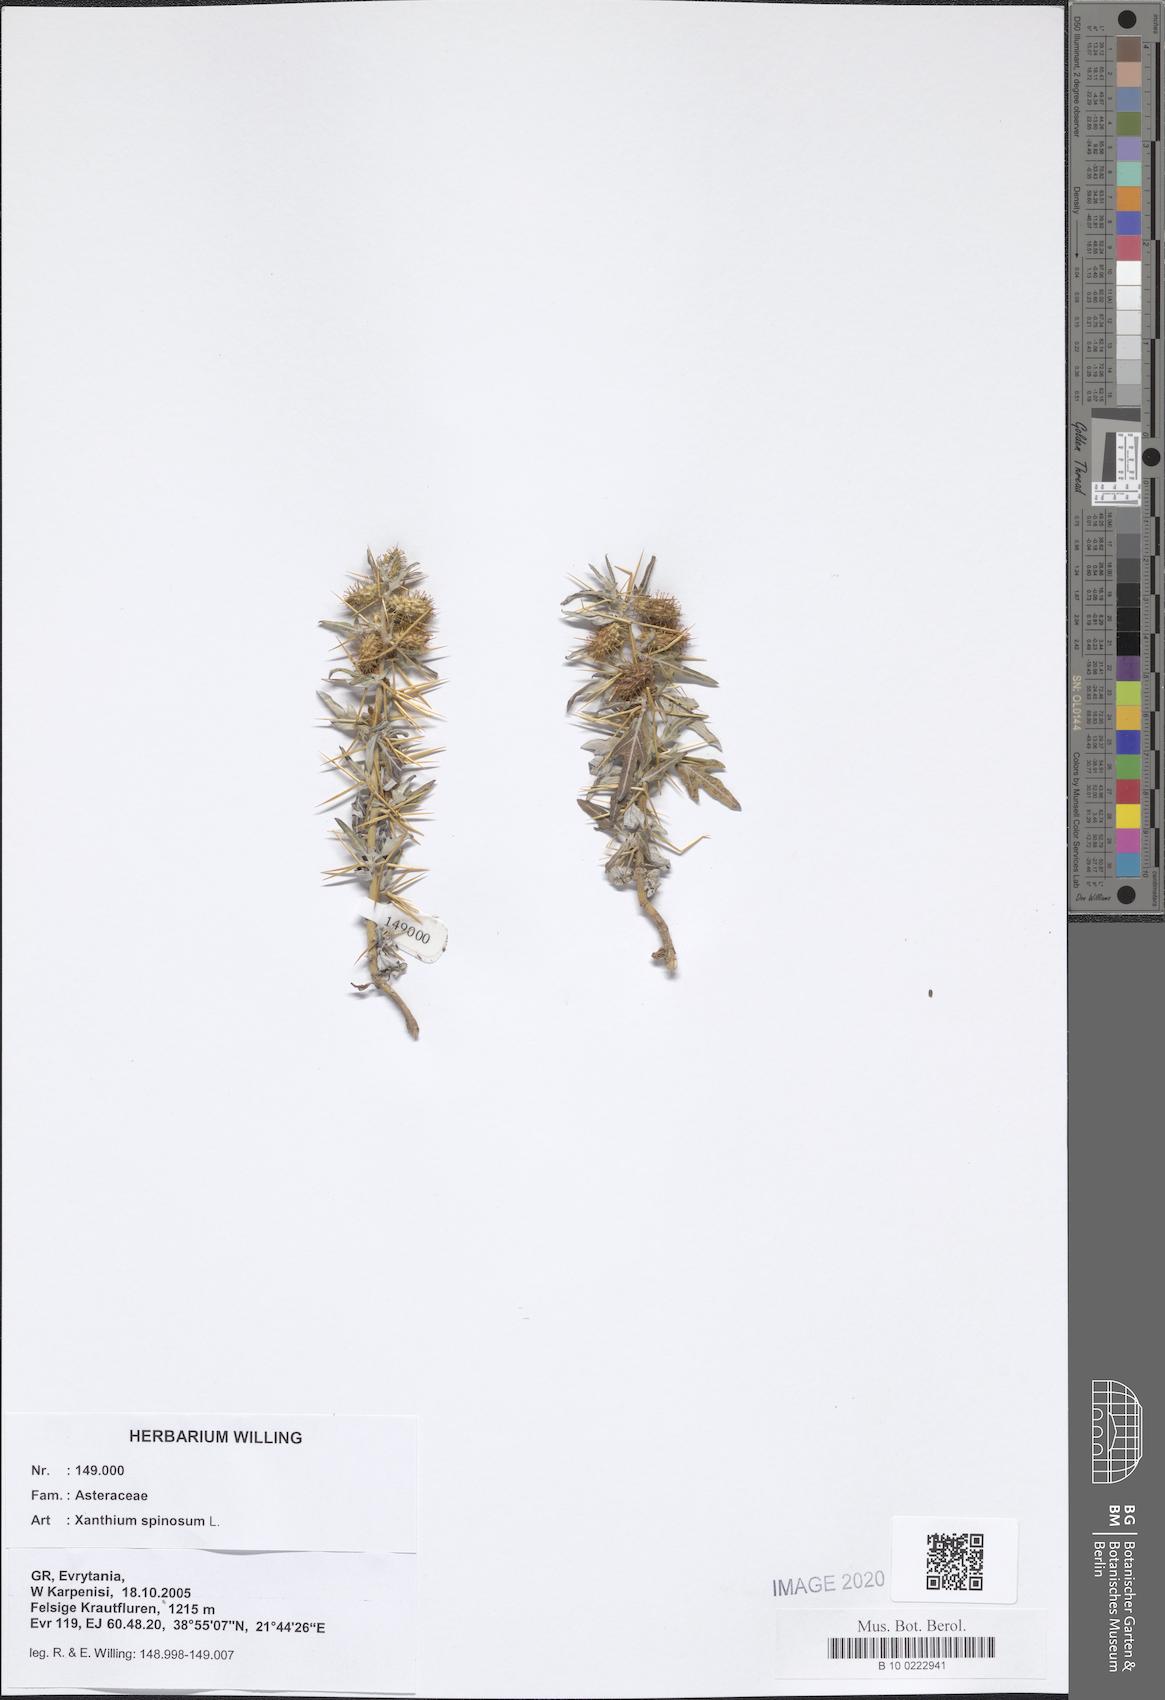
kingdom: Plantae
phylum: Tracheophyta
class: Magnoliopsida
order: Asterales
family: Asteraceae
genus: Xanthium
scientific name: Xanthium spinosum
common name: Spiny cocklebur
